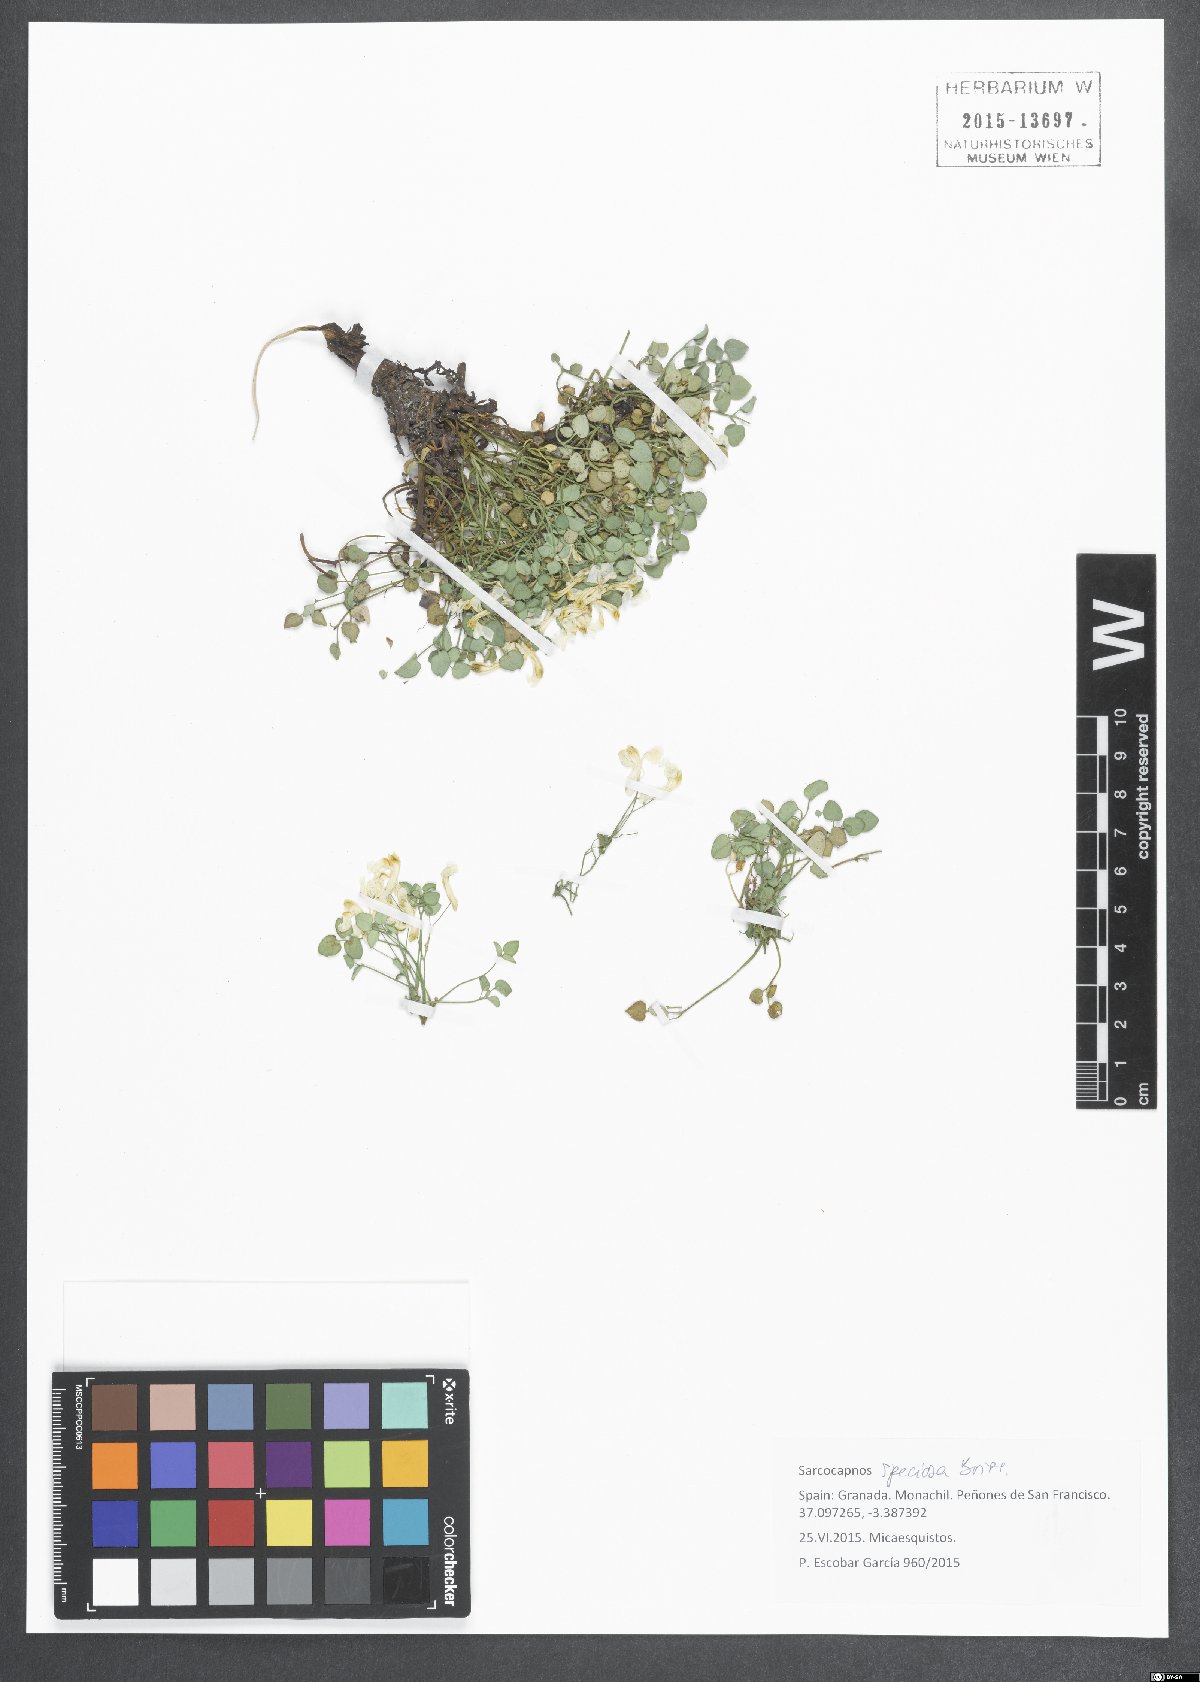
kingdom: Plantae
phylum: Tracheophyta
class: Magnoliopsida
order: Ranunculales
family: Papaveraceae
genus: Sarcocapnos
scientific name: Sarcocapnos crassifolia
